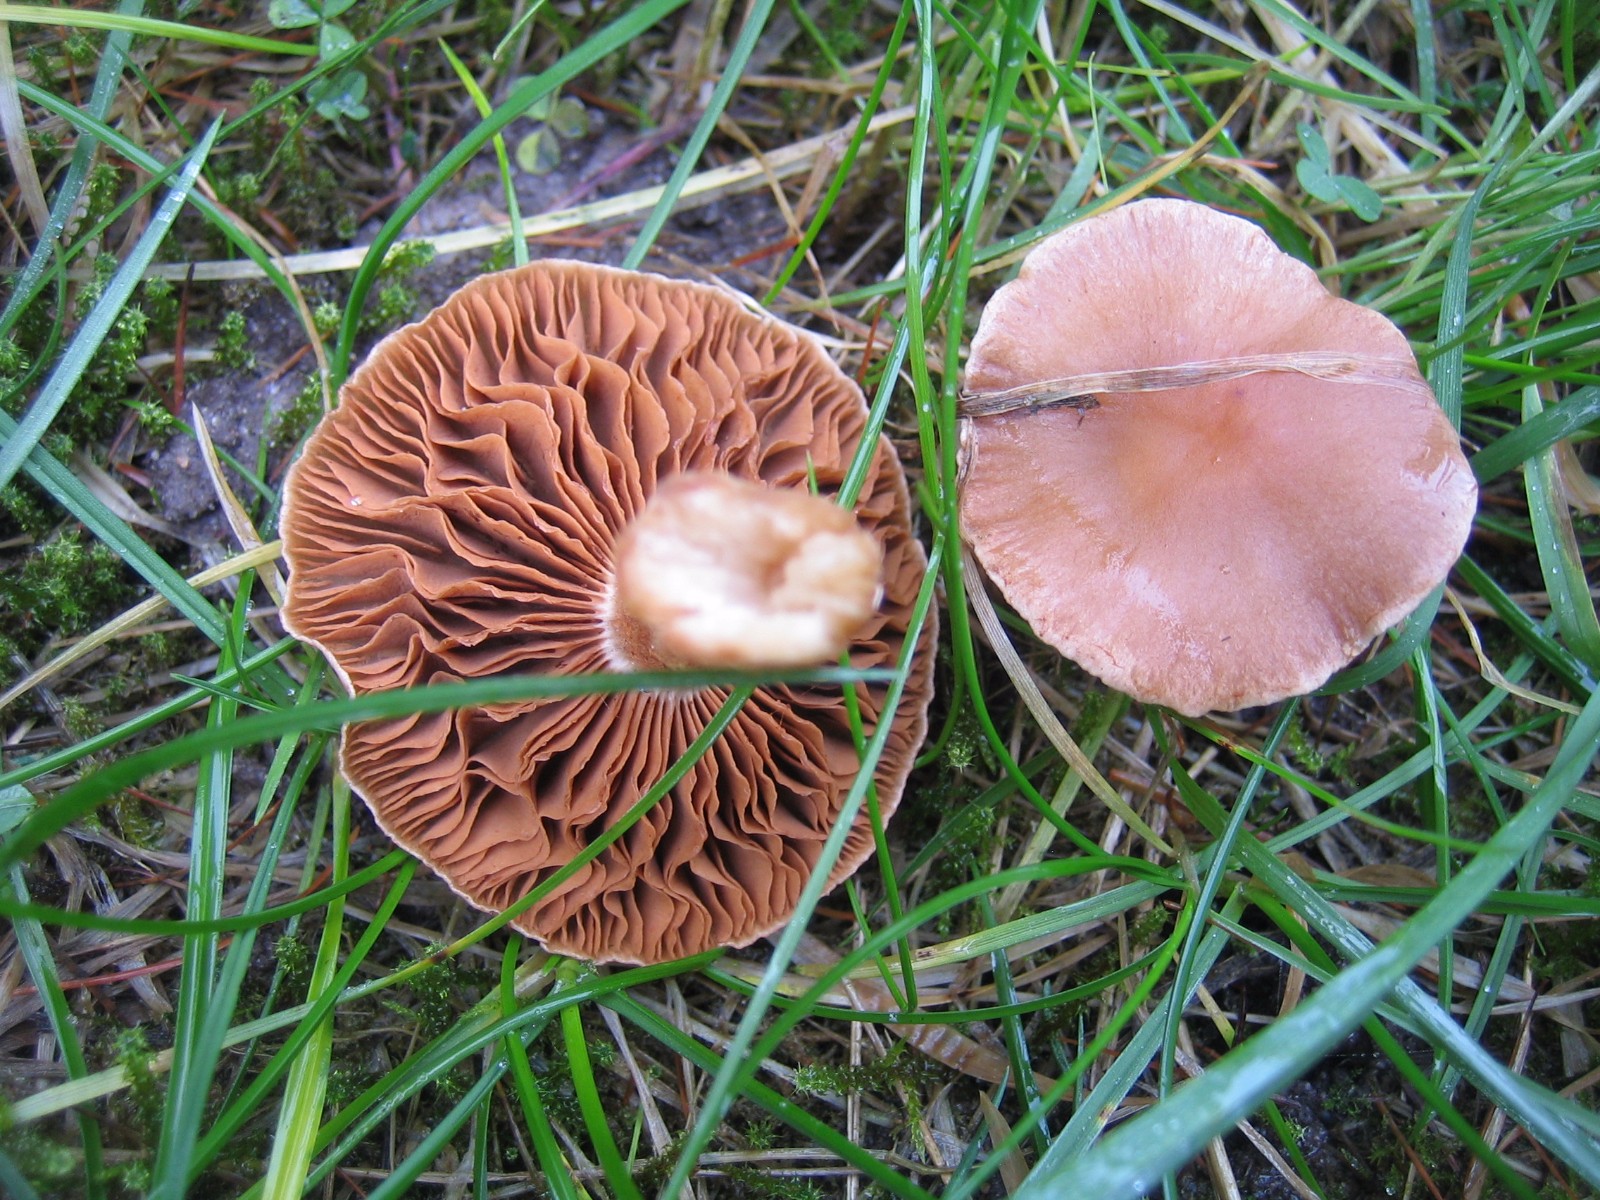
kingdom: Fungi
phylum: Basidiomycota
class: Agaricomycetes
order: Agaricales
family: Cortinariaceae
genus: Cortinarius
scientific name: Cortinarius
